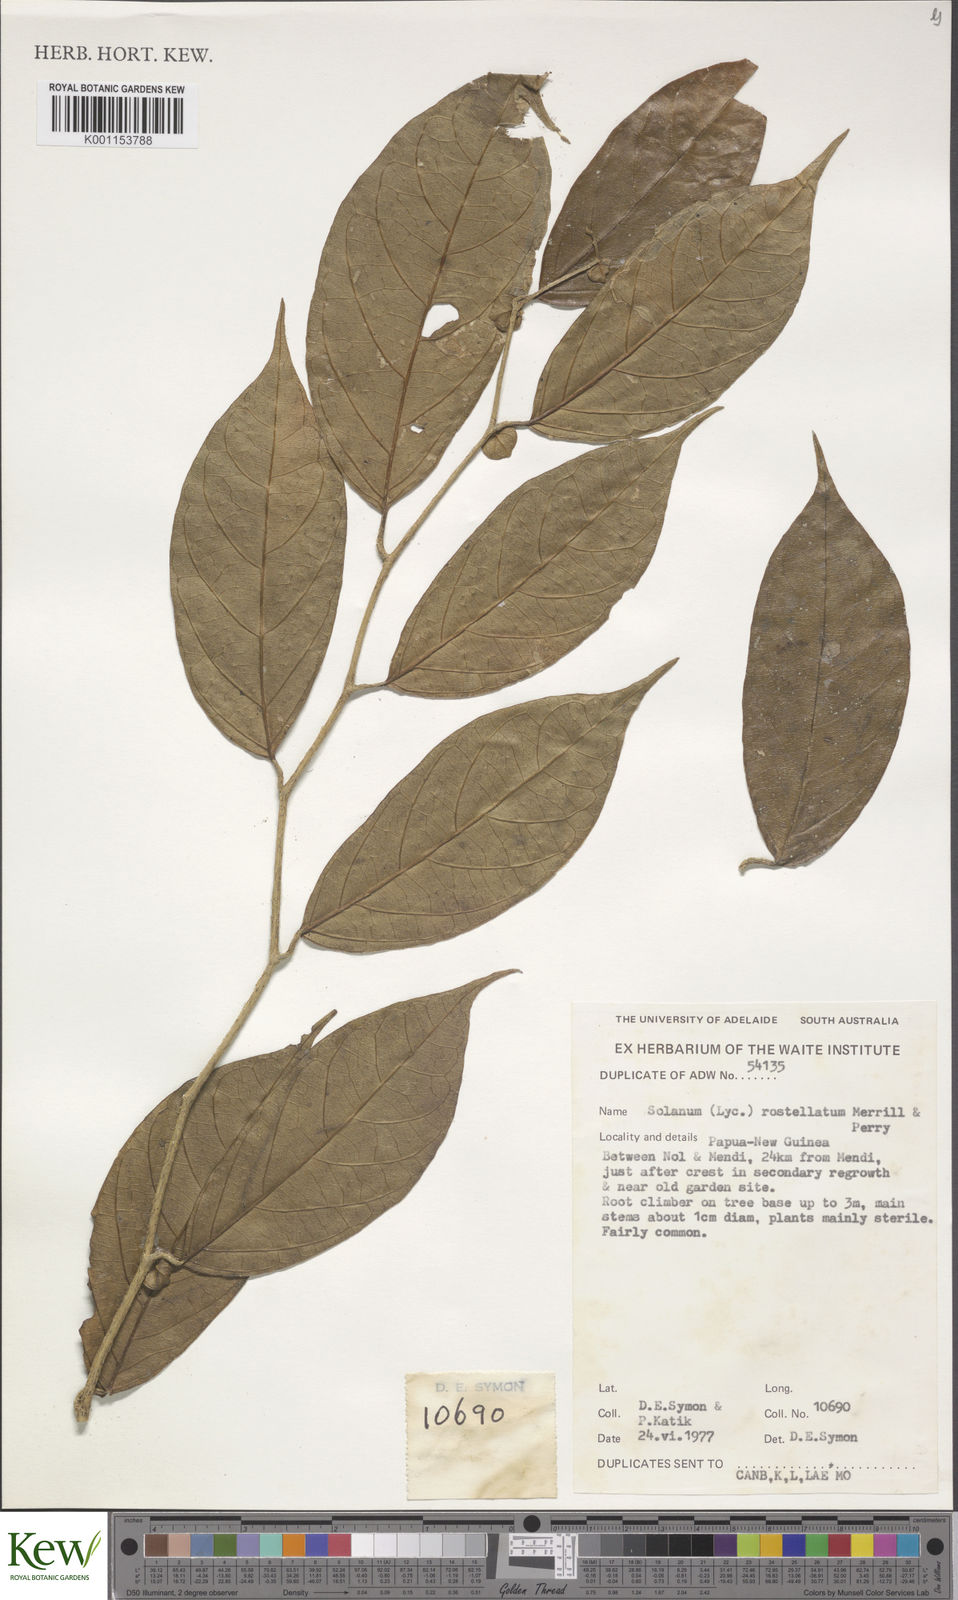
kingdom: Plantae
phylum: Tracheophyta
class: Magnoliopsida
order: Solanales
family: Solanaceae
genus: Lycianthes
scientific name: Lycianthes rostellata
